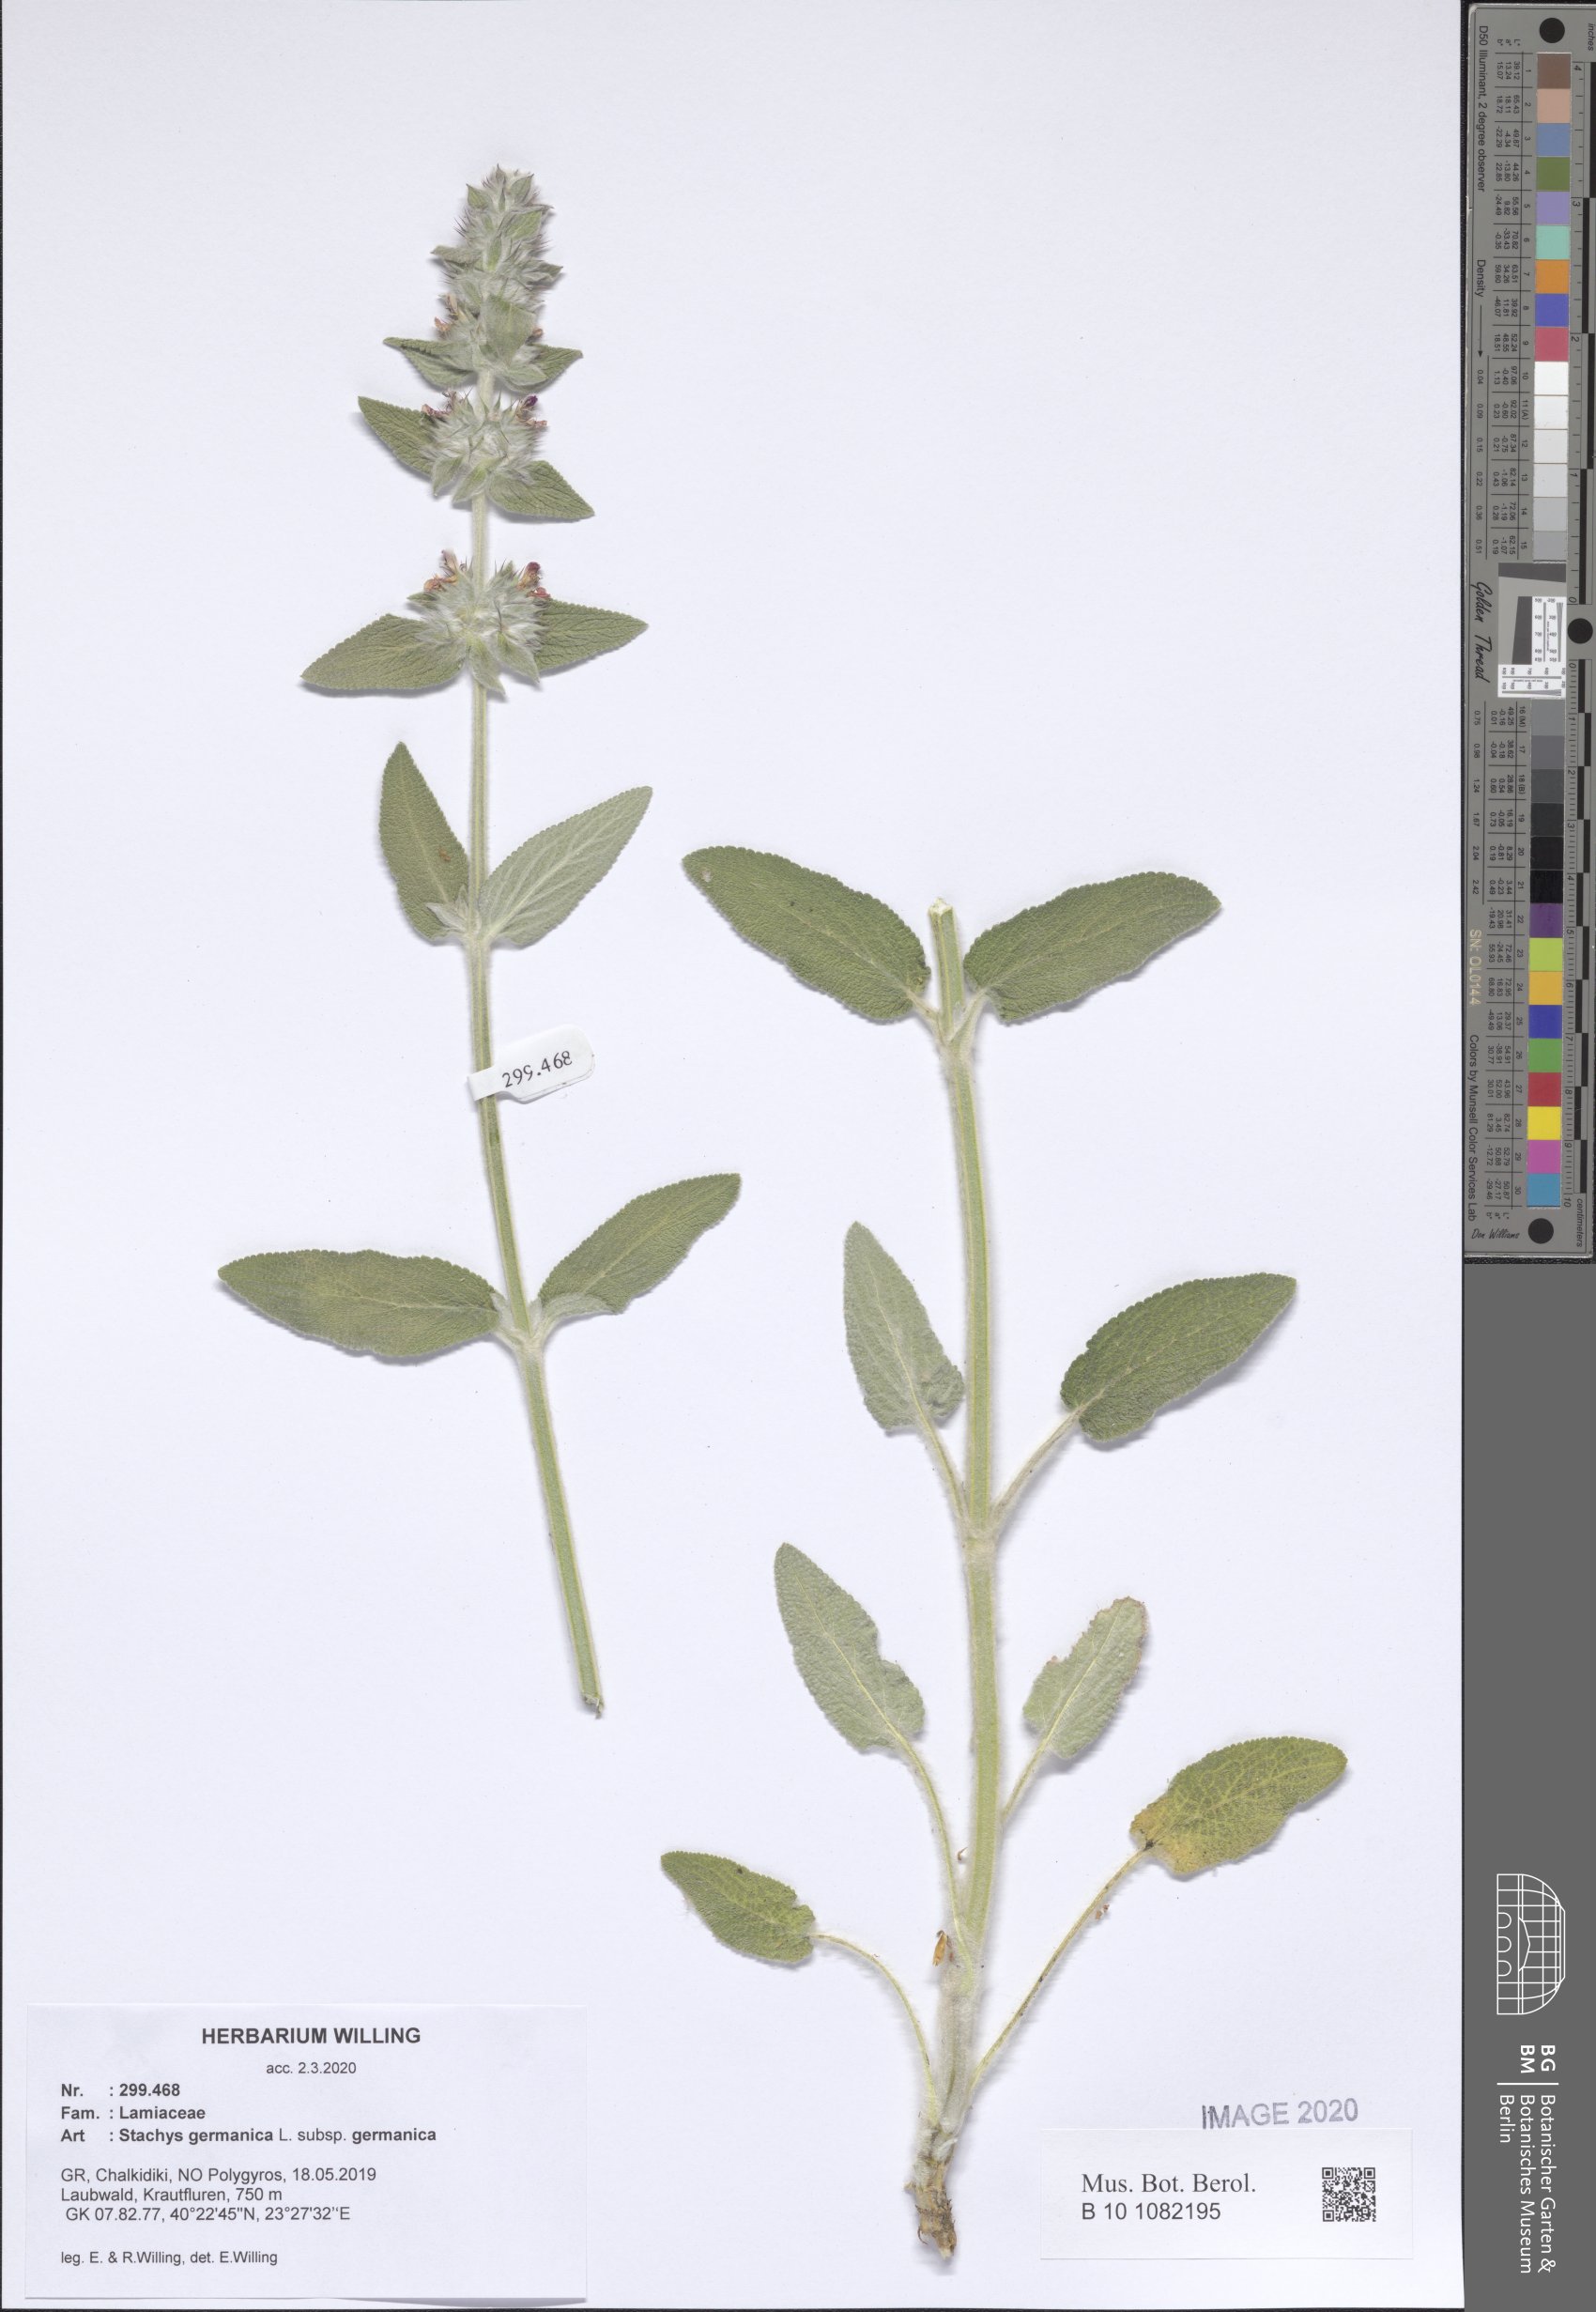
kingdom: Plantae
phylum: Tracheophyta
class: Magnoliopsida
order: Lamiales
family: Lamiaceae
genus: Stachys
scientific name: Stachys germanica
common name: Downy woundwort
